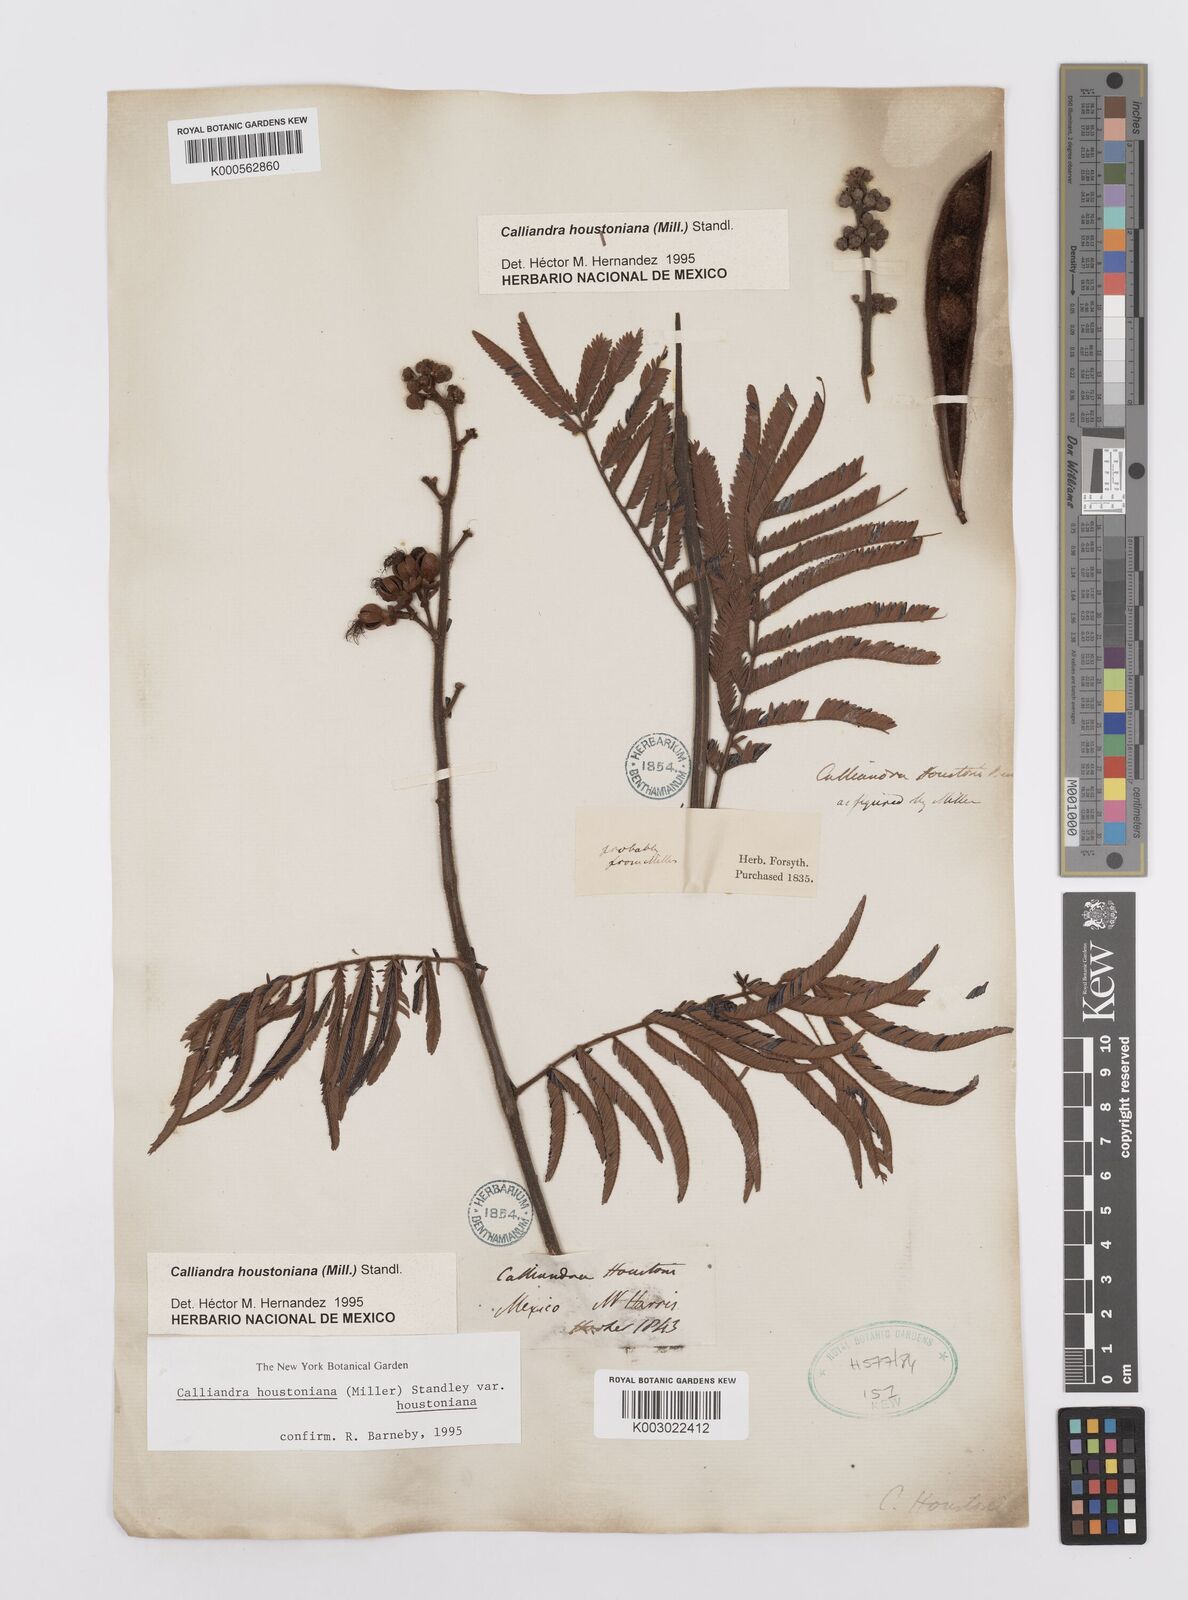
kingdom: Plantae
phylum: Tracheophyta
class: Magnoliopsida
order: Fabales
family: Fabaceae
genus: Calliandra
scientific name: Calliandra houstoniana
